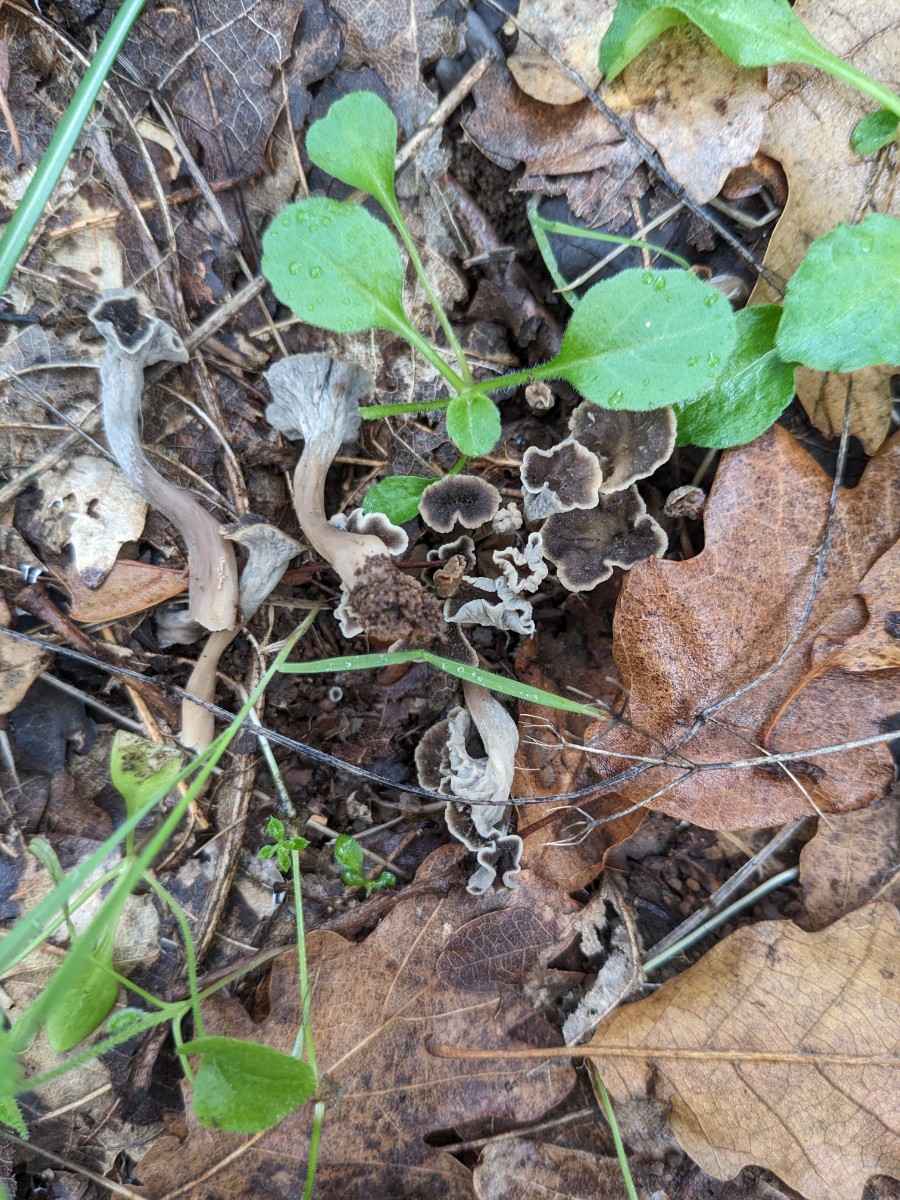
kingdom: Fungi
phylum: Basidiomycota
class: Agaricomycetes
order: Cantharellales
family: Hydnaceae
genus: Craterellus
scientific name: Craterellus undulatus
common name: liden kantarel
